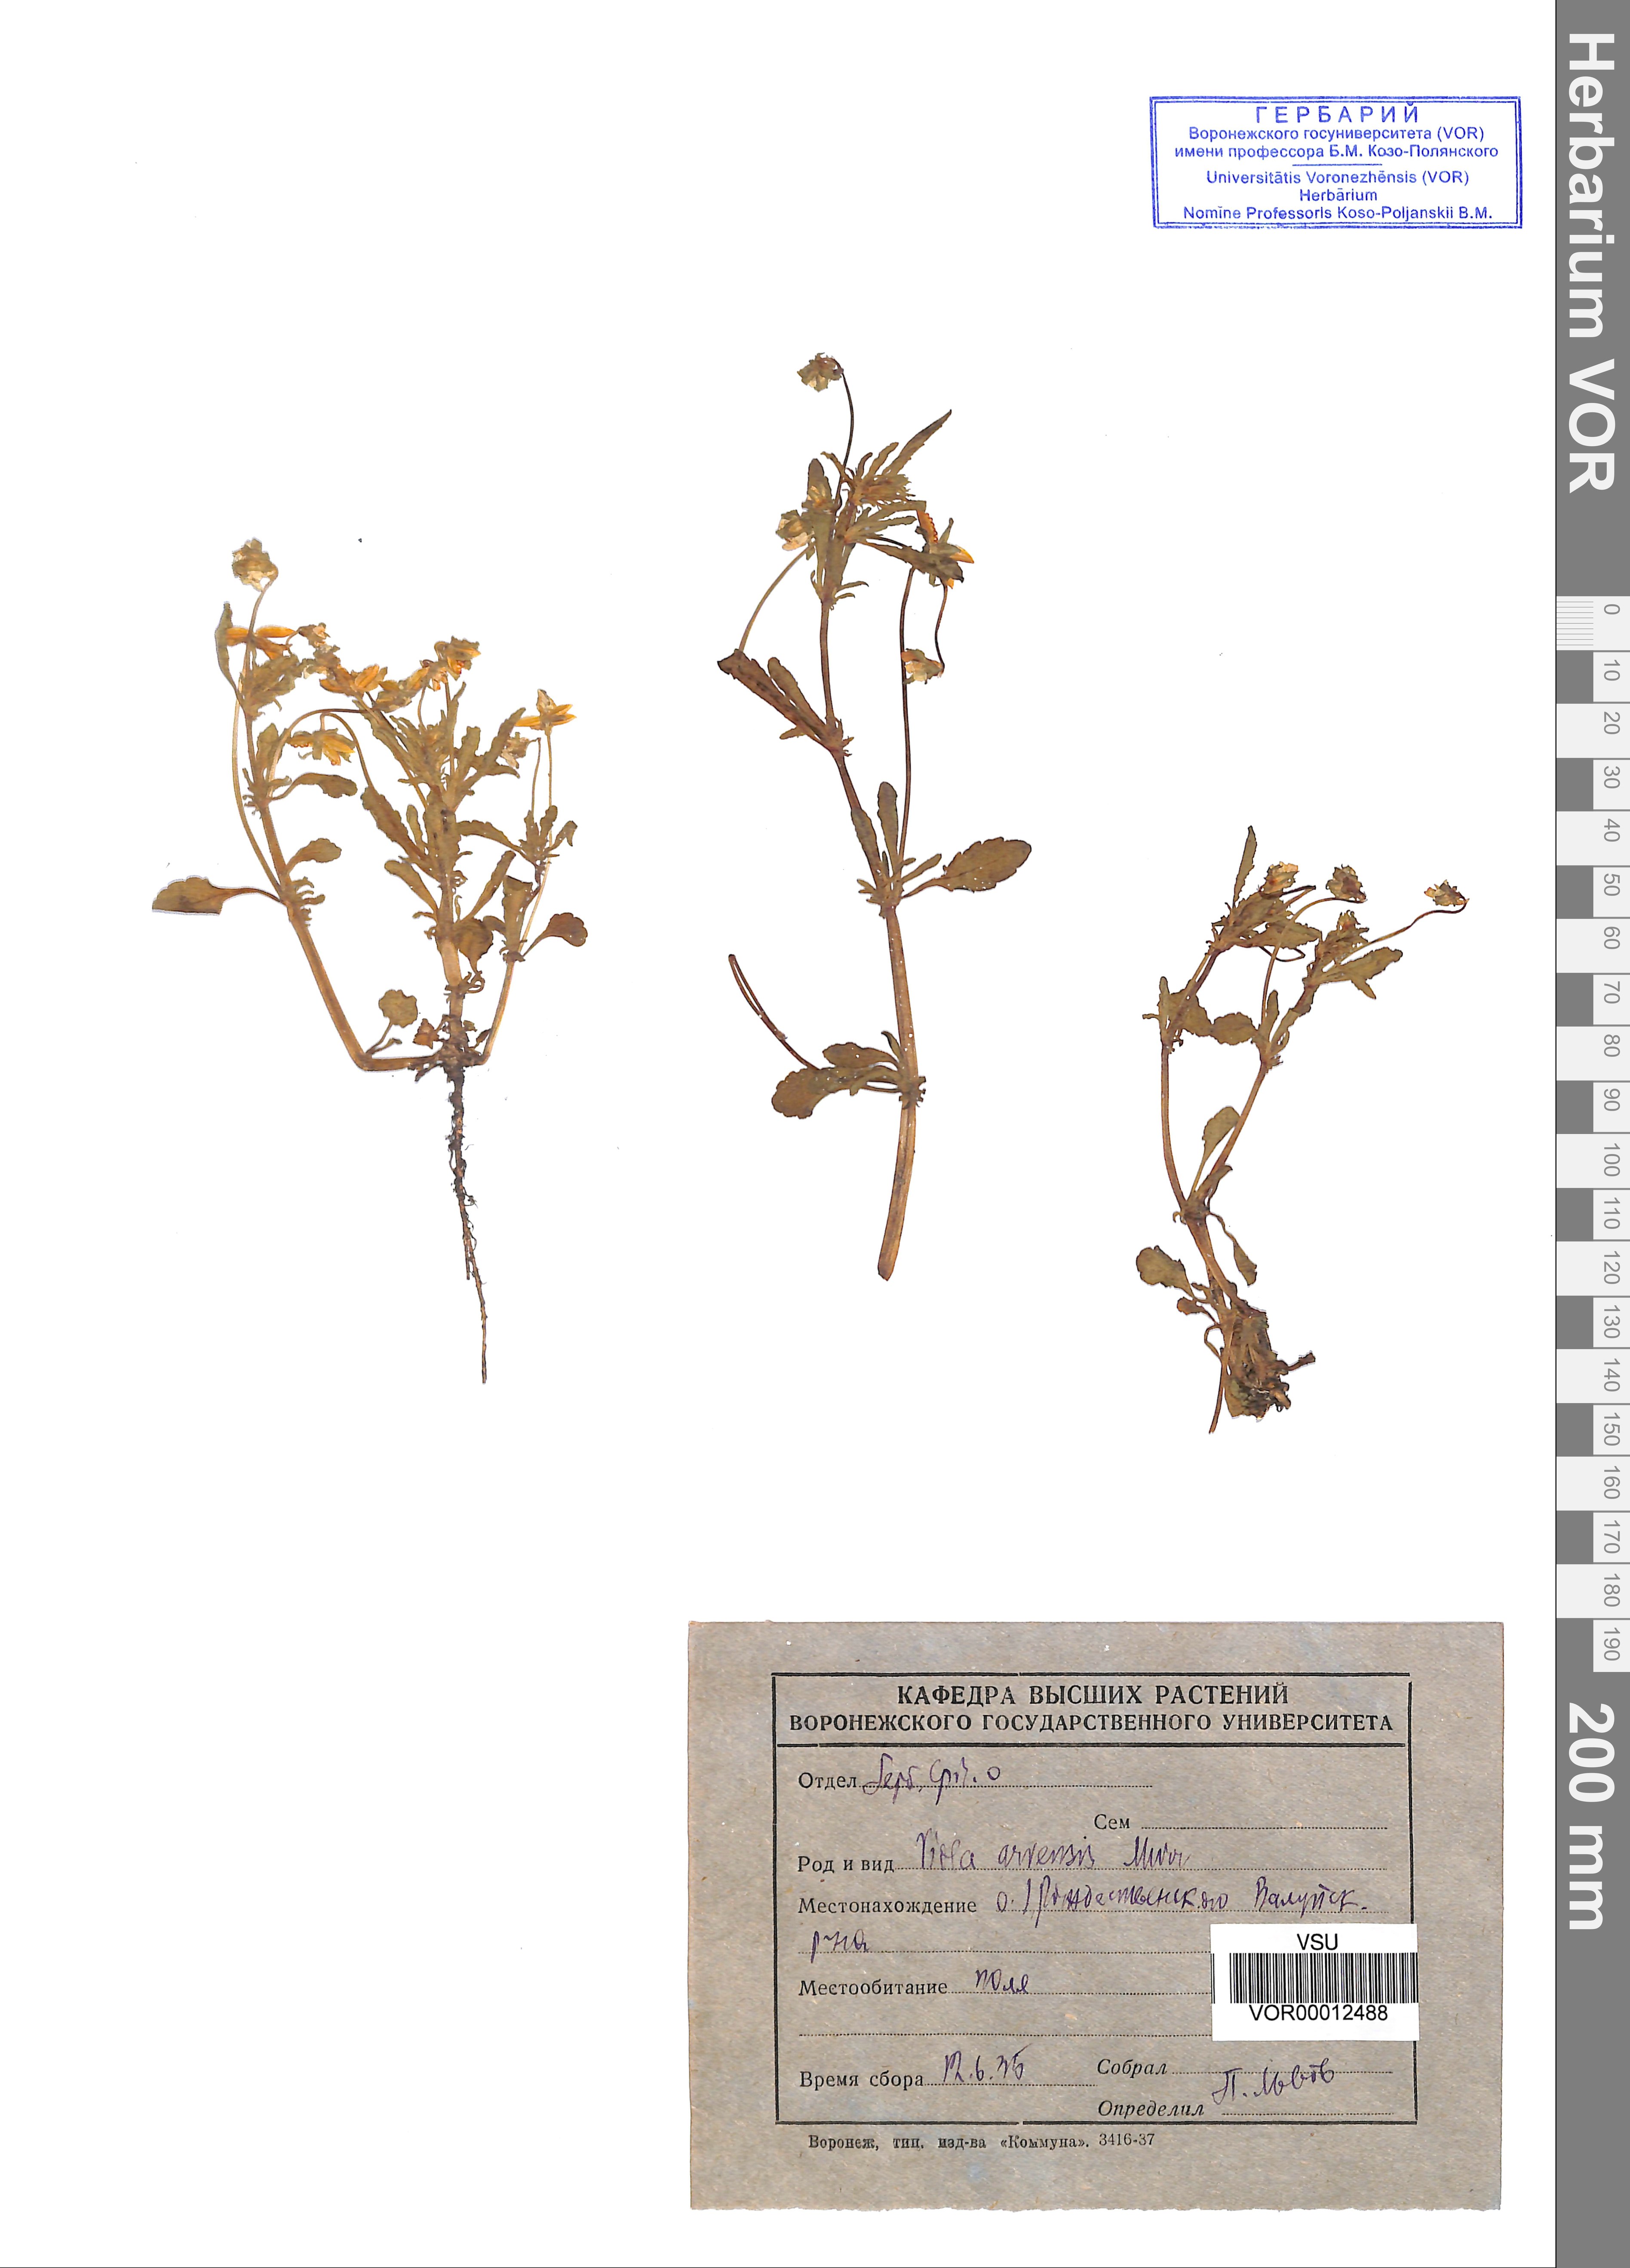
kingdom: Plantae
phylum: Tracheophyta
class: Magnoliopsida
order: Malpighiales
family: Violaceae
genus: Viola
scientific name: Viola arvensis
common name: Field pansy
